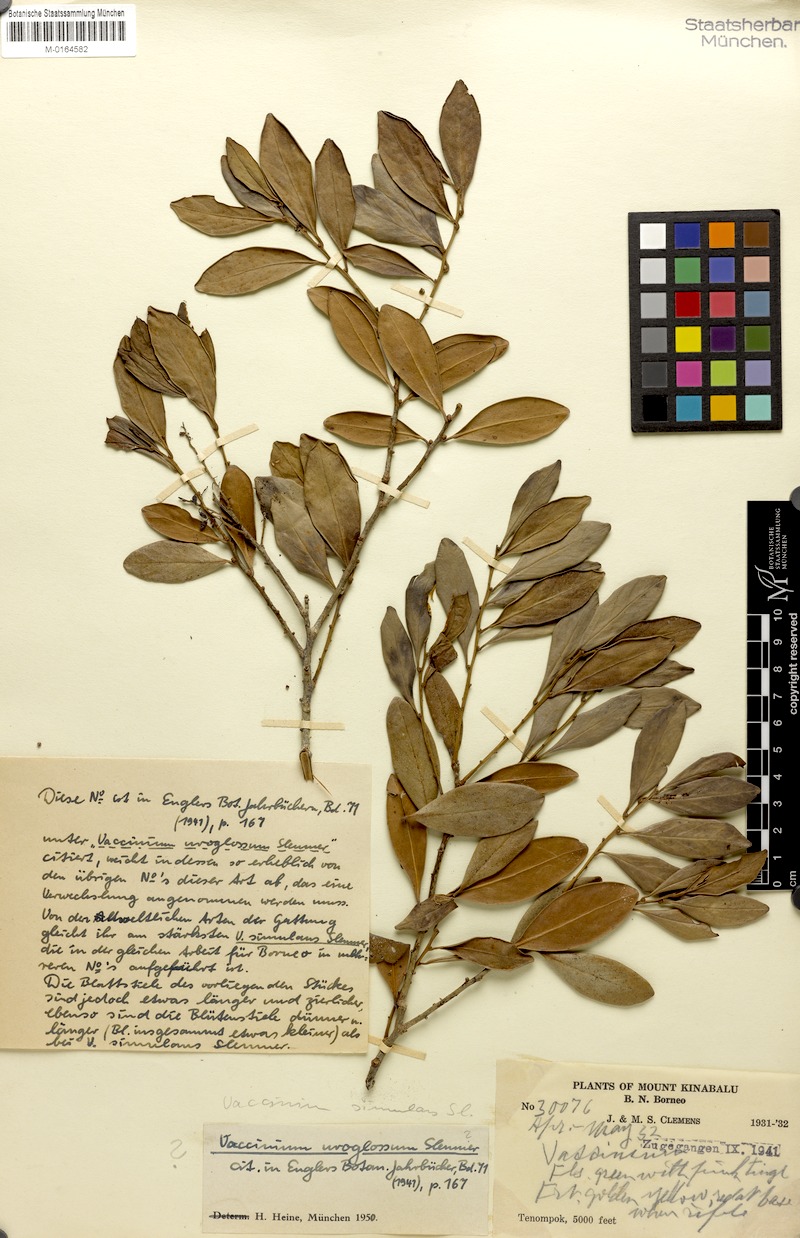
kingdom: Plantae
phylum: Tracheophyta
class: Magnoliopsida
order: Ericales
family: Ericaceae
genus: Rigiolepis
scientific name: Rigiolepis uroglossa
